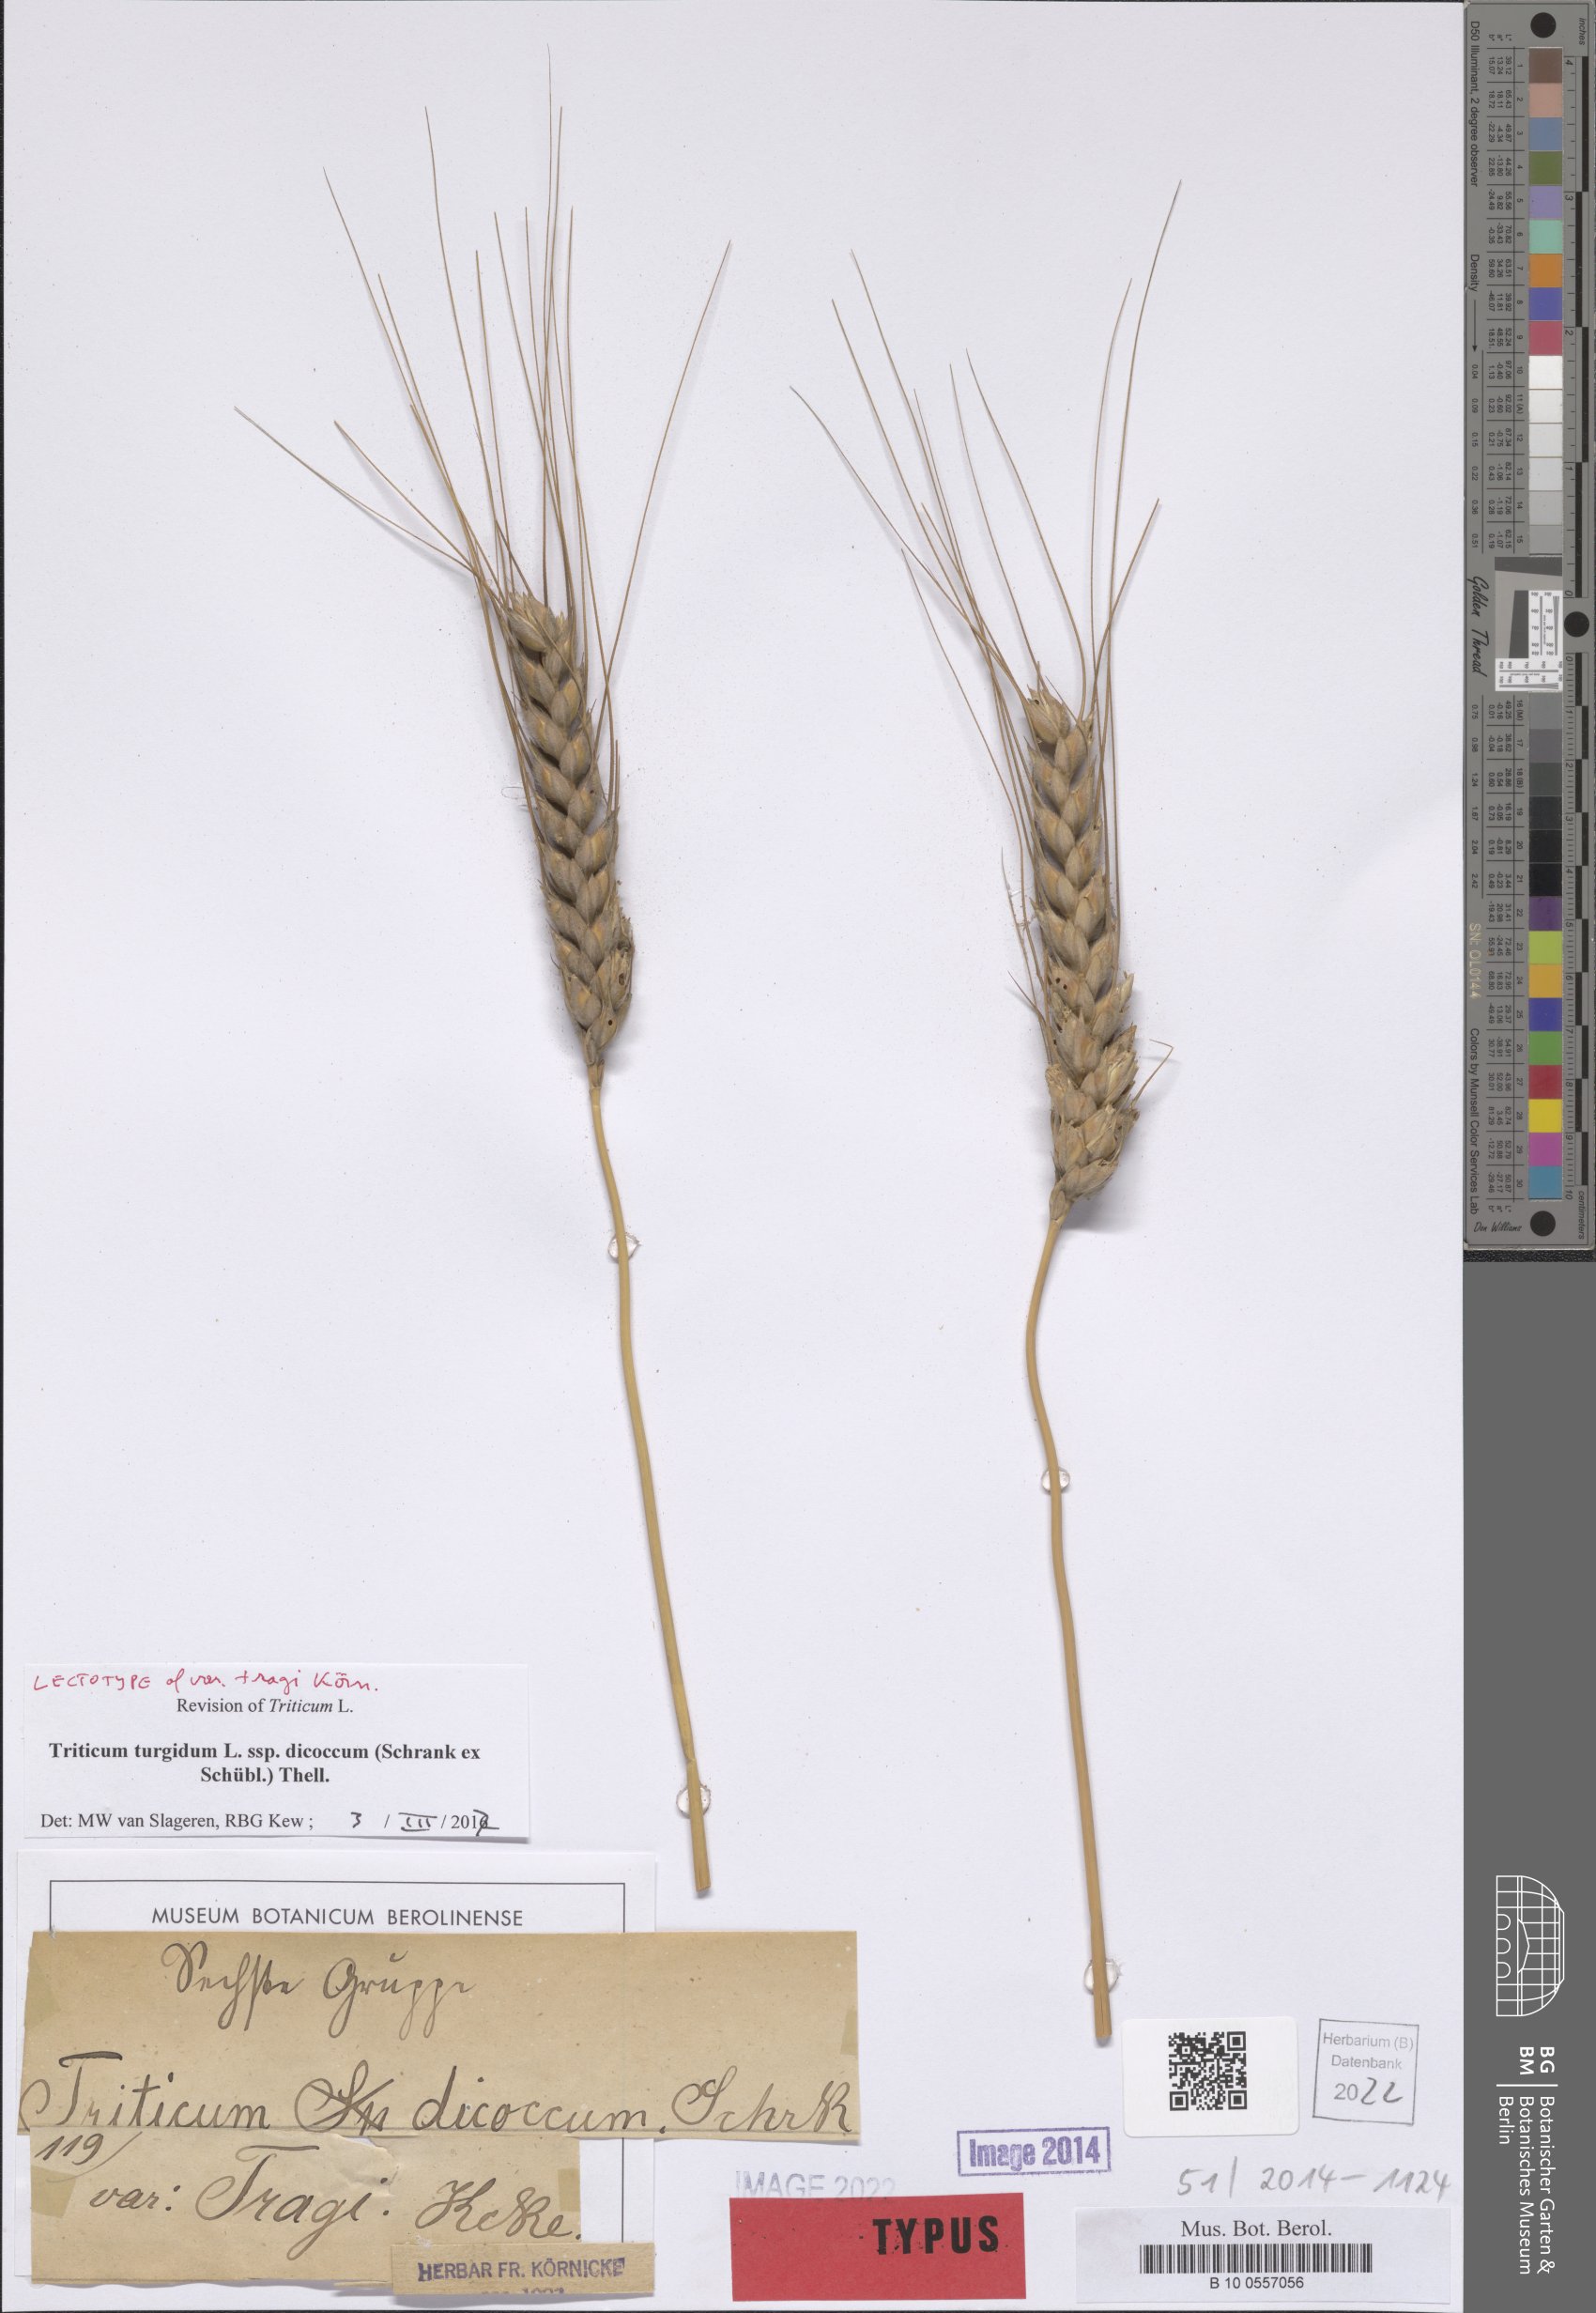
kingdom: Plantae
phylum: Tracheophyta
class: Liliopsida
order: Poales
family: Poaceae
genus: Triticum
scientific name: Triticum turgidum
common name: Rivet wheat
